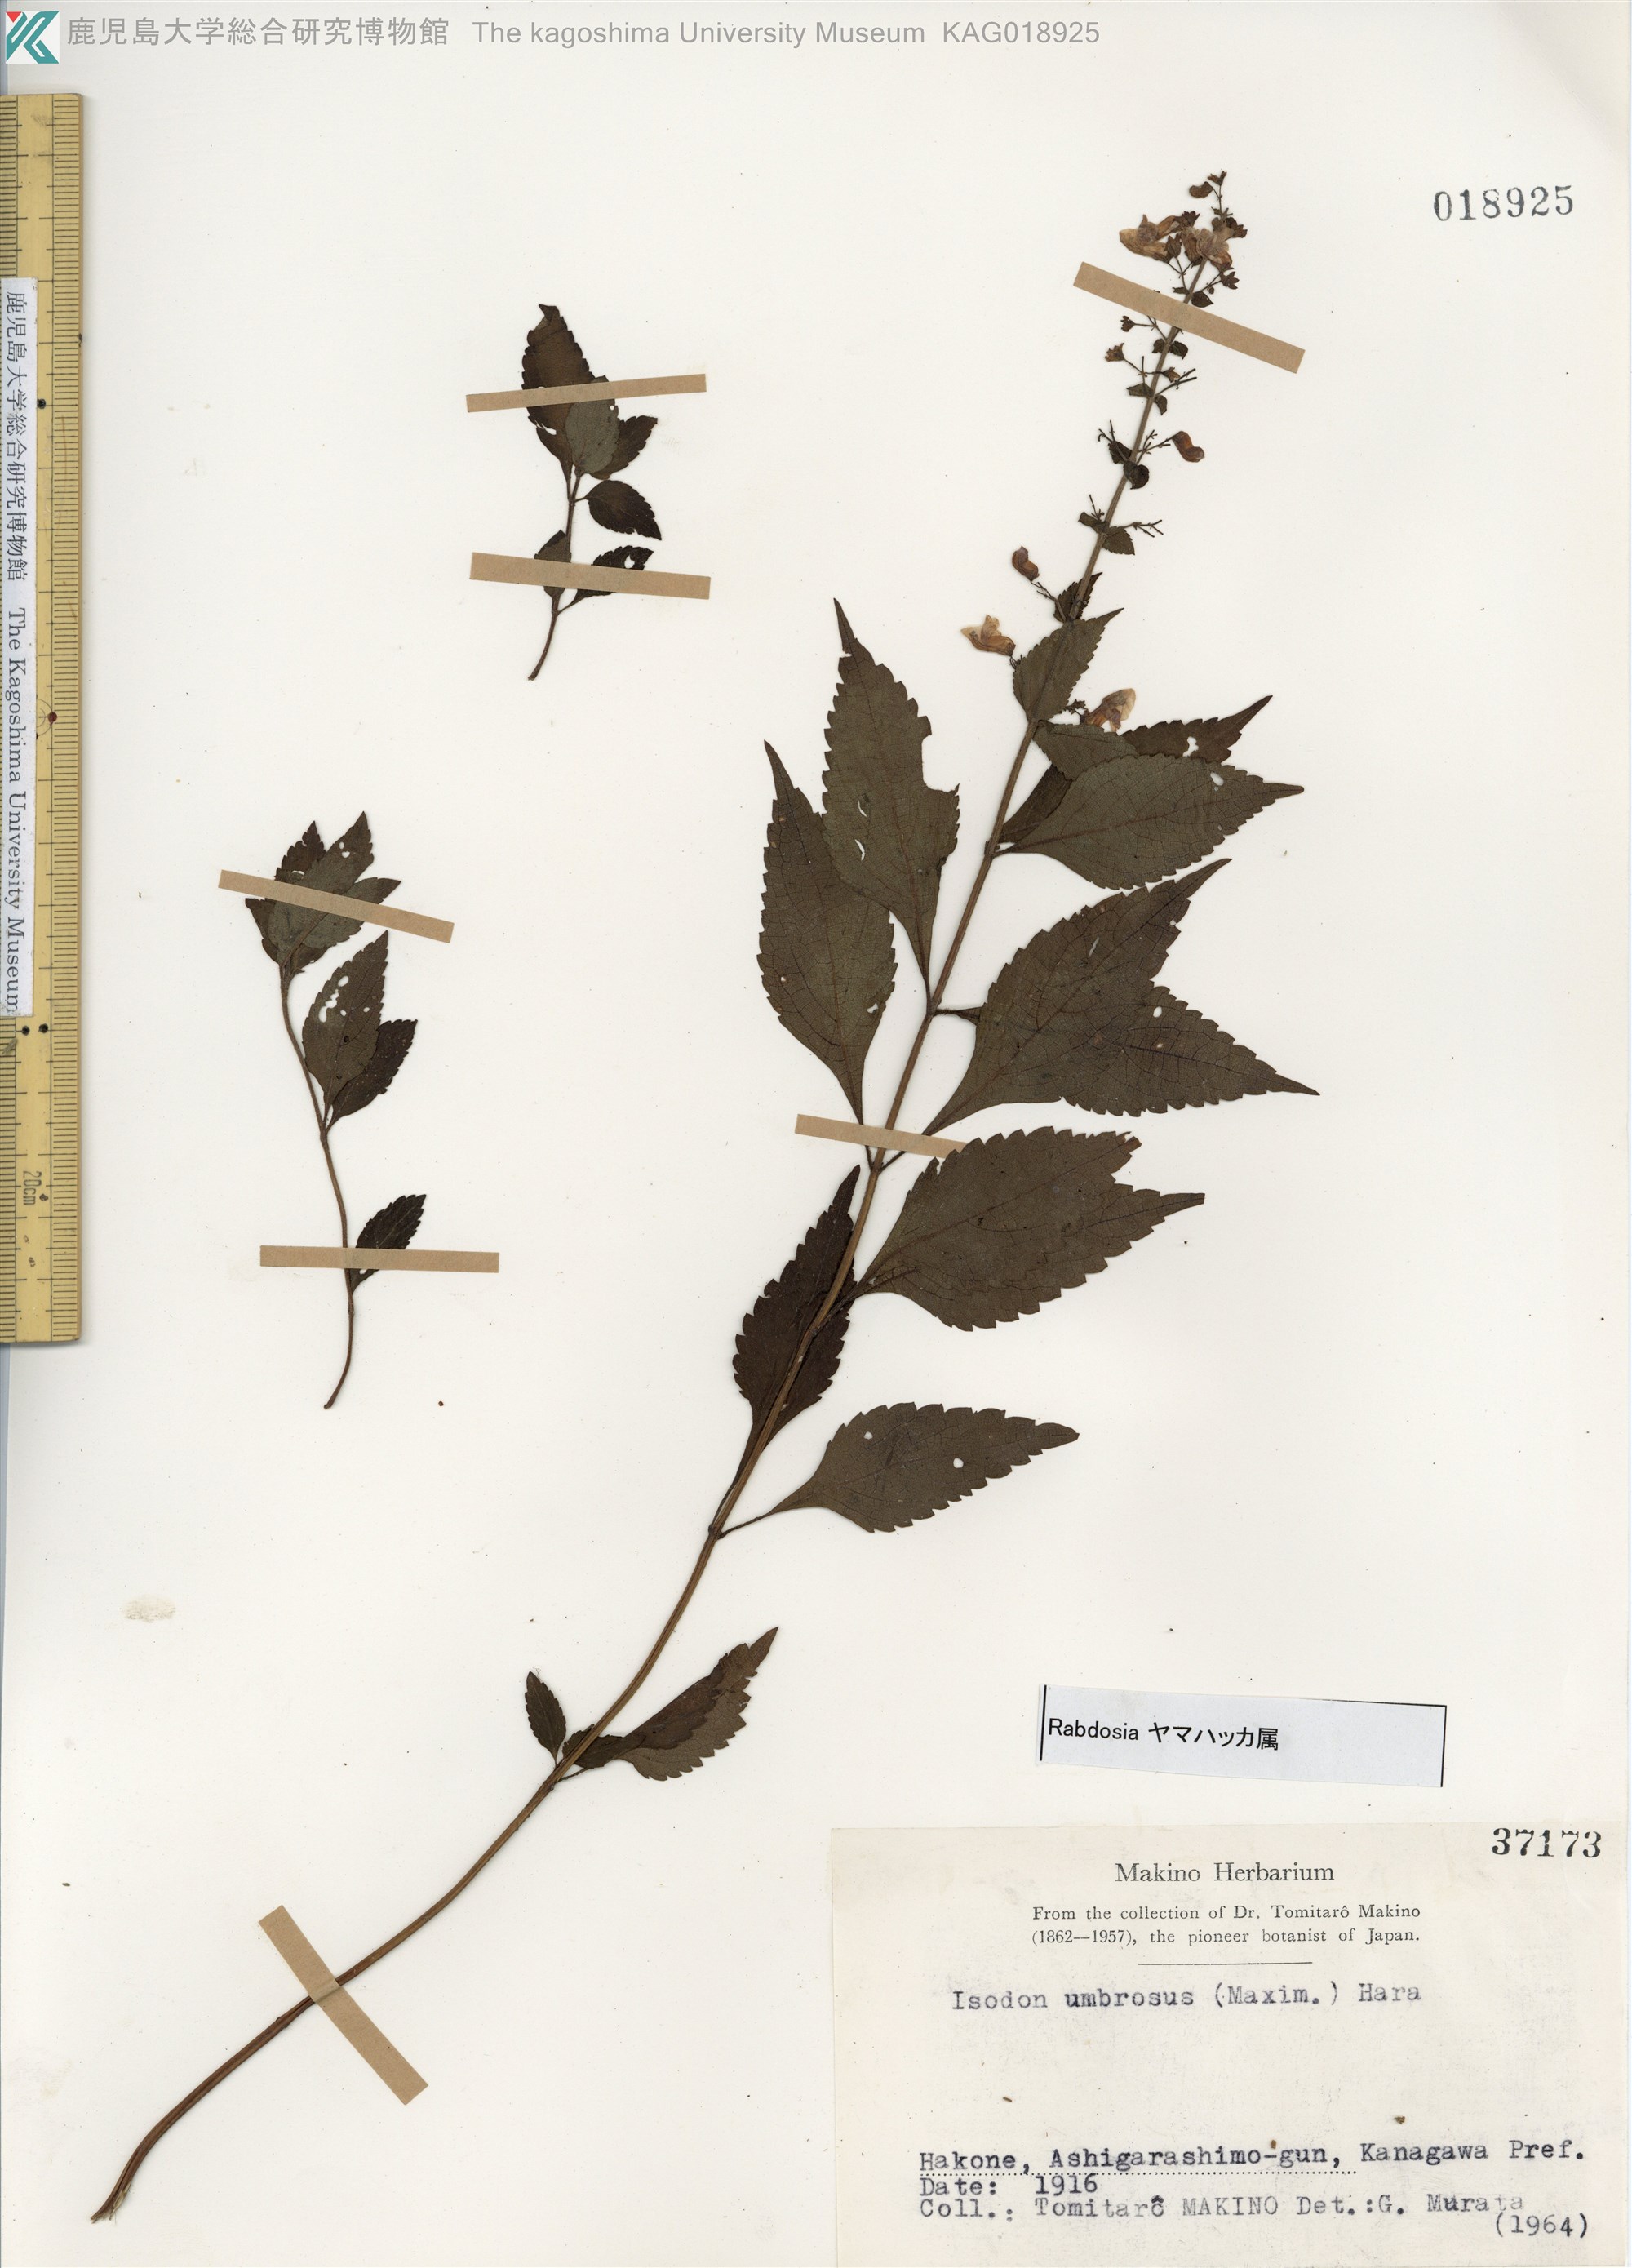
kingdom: Plantae
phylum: Tracheophyta
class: Magnoliopsida
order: Lamiales
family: Lamiaceae
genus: Isodon
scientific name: Isodon umbrosus
